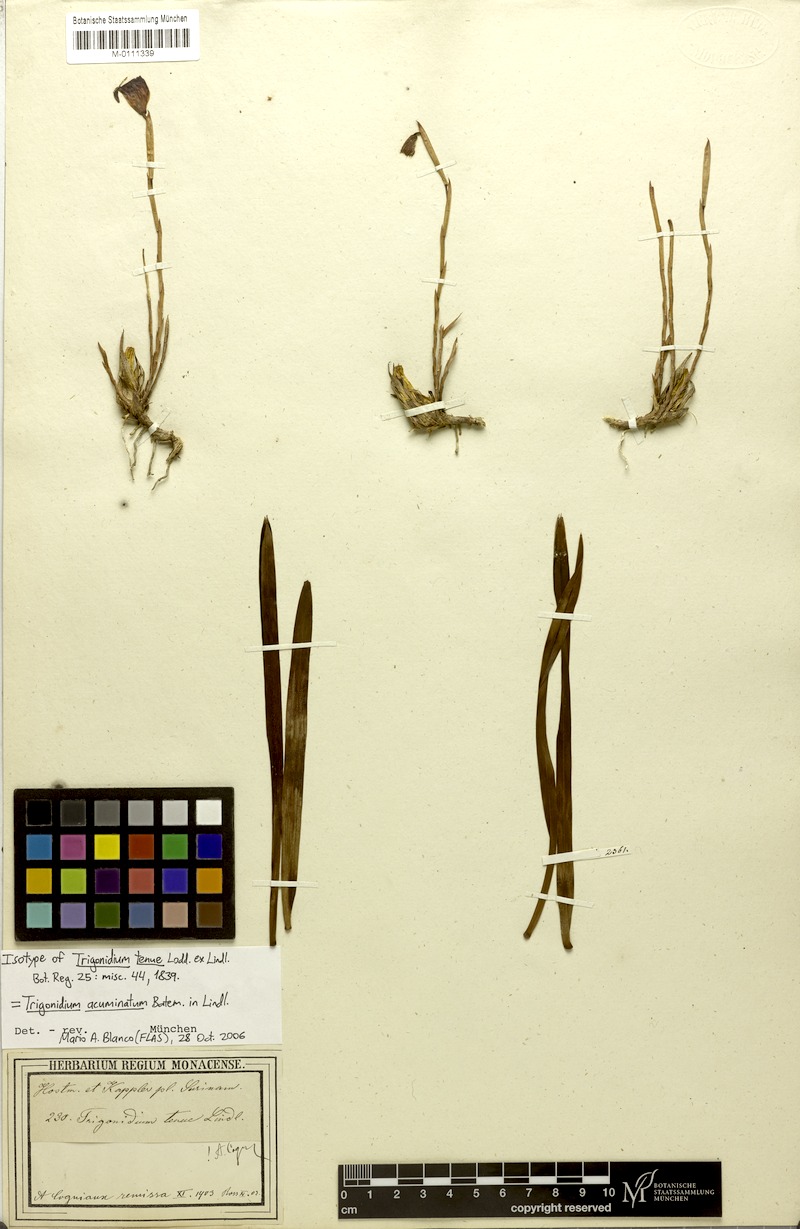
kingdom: Plantae
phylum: Tracheophyta
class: Liliopsida
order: Asparagales
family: Orchidaceae
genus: Maxillaria
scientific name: Maxillaria subrepens
